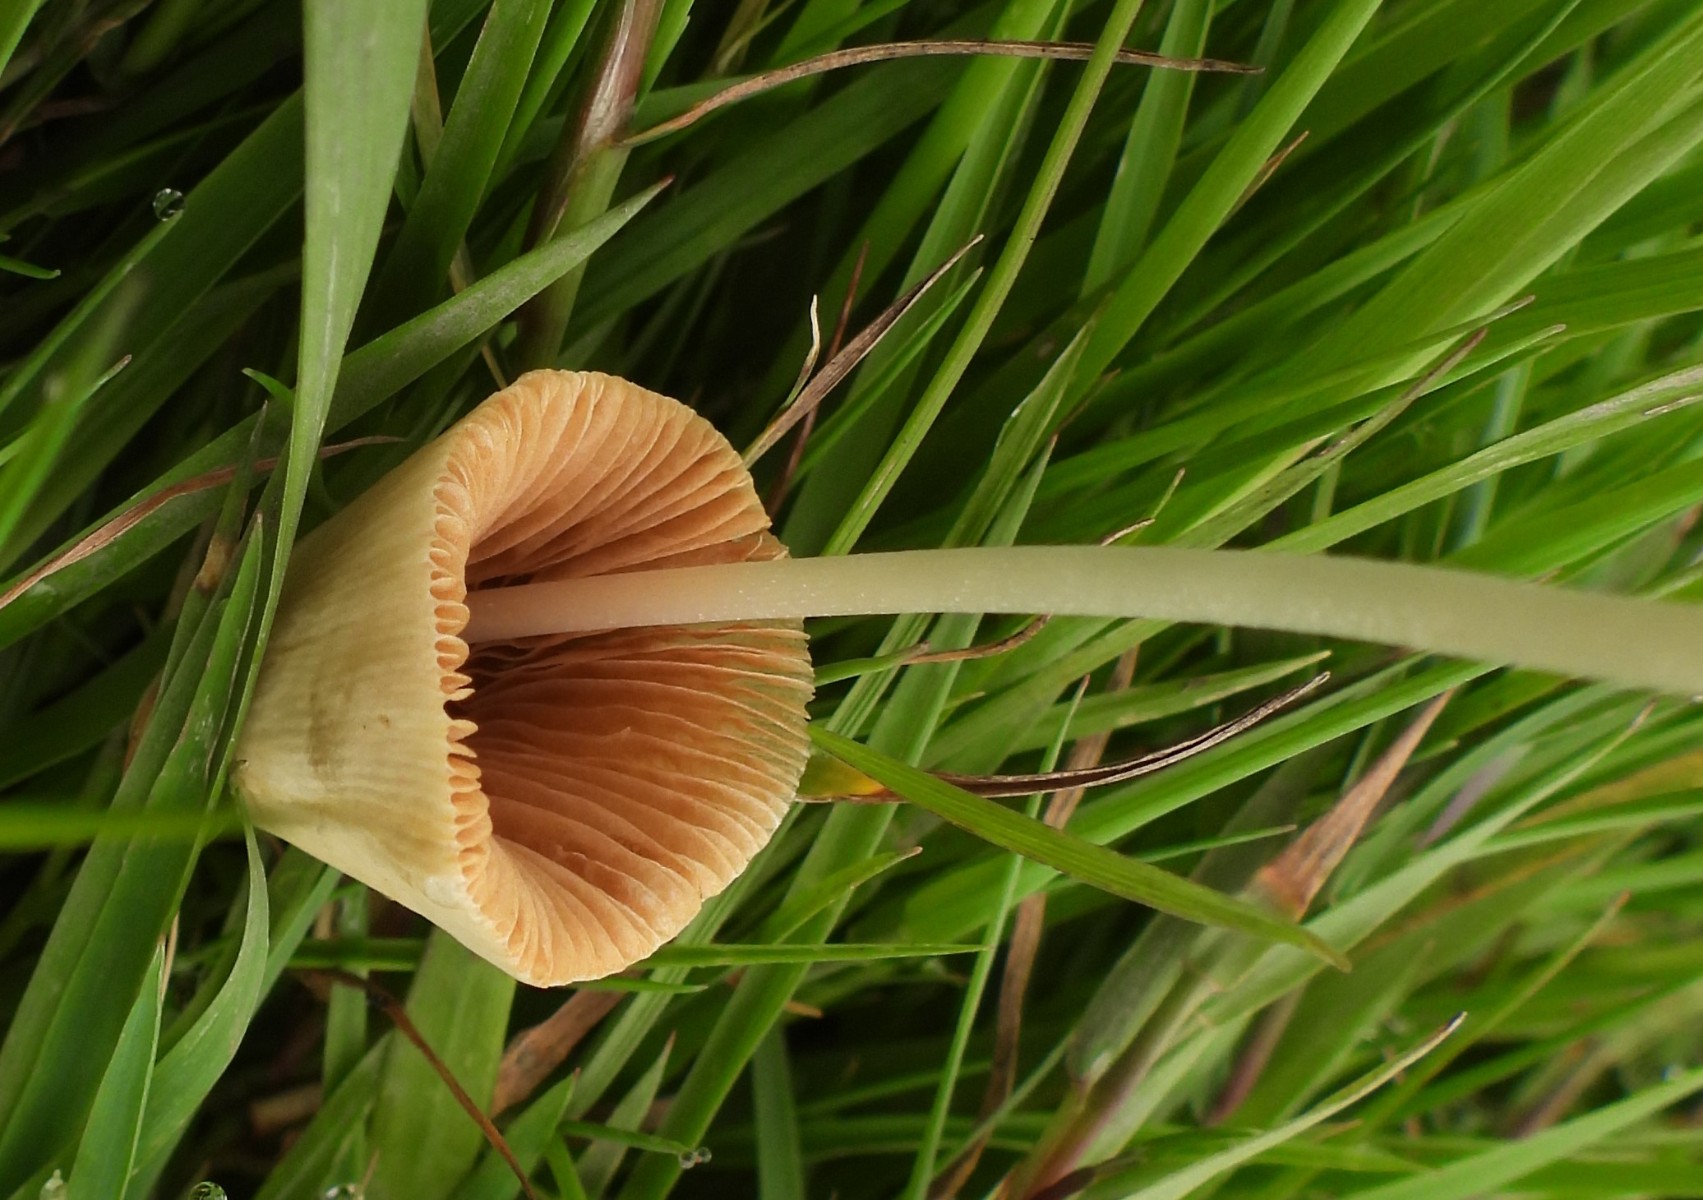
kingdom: Fungi
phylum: Basidiomycota
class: Agaricomycetes
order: Agaricales
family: Bolbitiaceae
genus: Conocybe
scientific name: Conocybe apala
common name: mælkehvid keglehat
